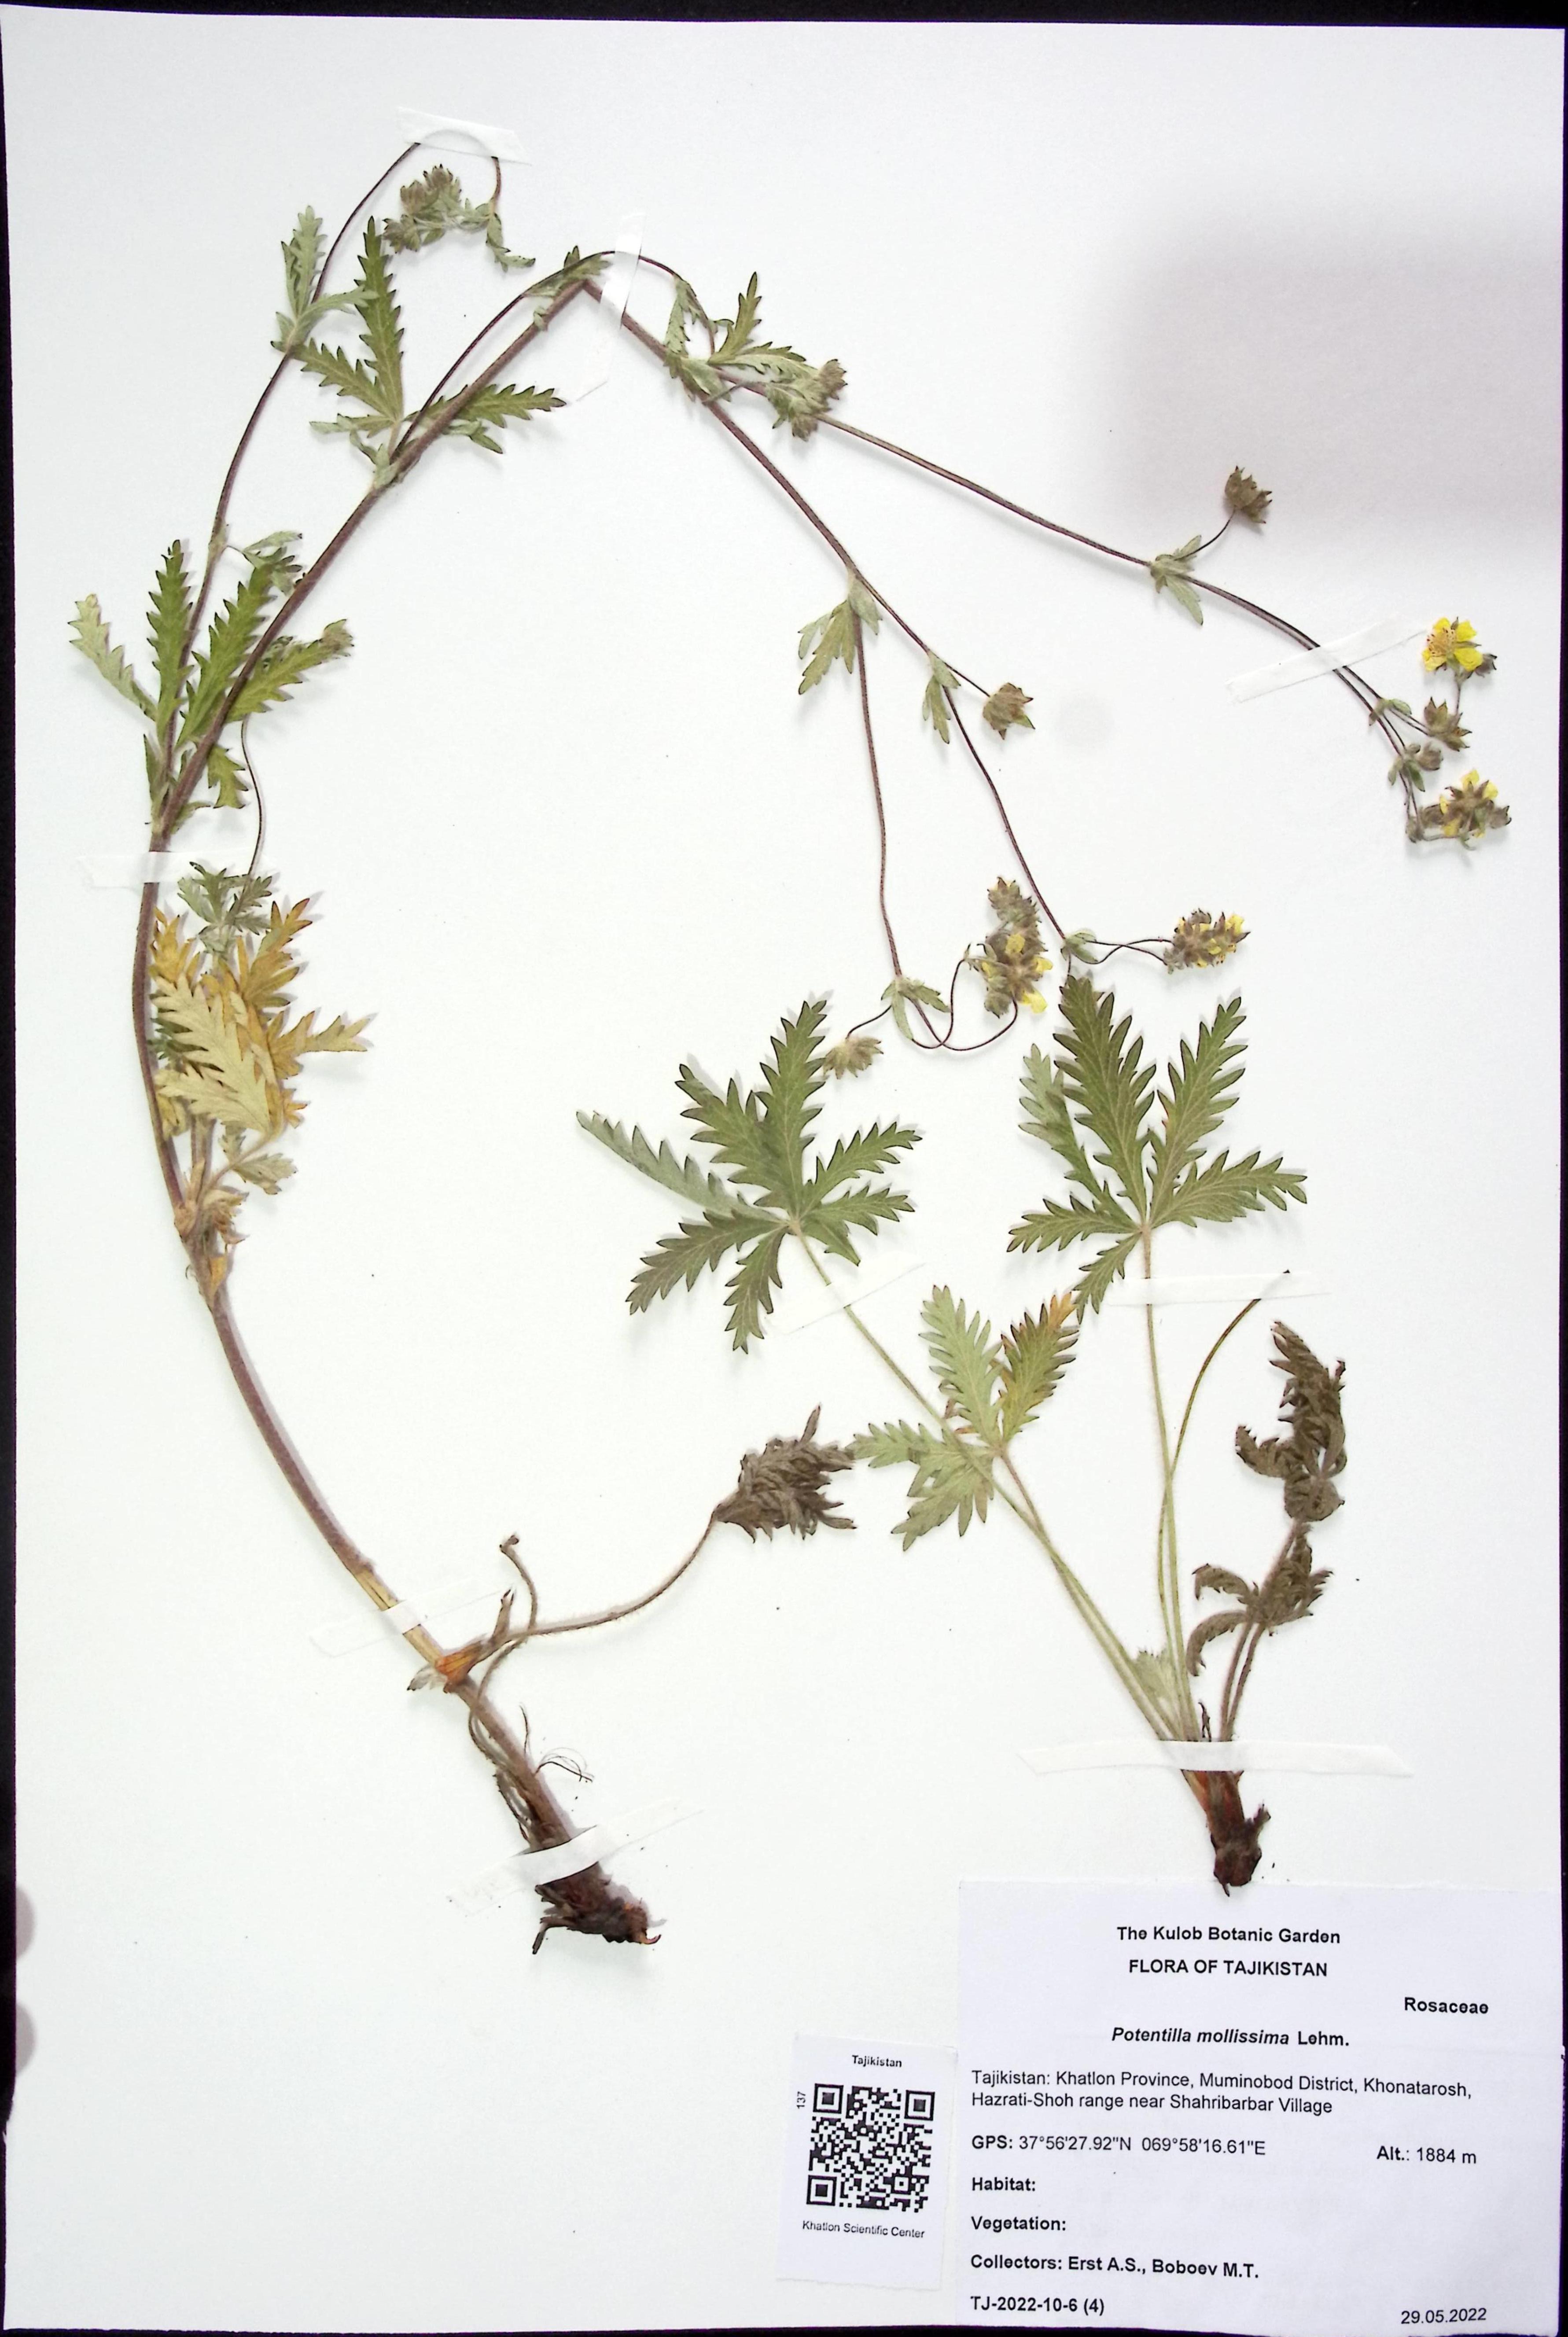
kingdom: Plantae
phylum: Tracheophyta
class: Magnoliopsida
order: Rosales
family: Rosaceae
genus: Potentilla
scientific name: Potentilla mollissima
